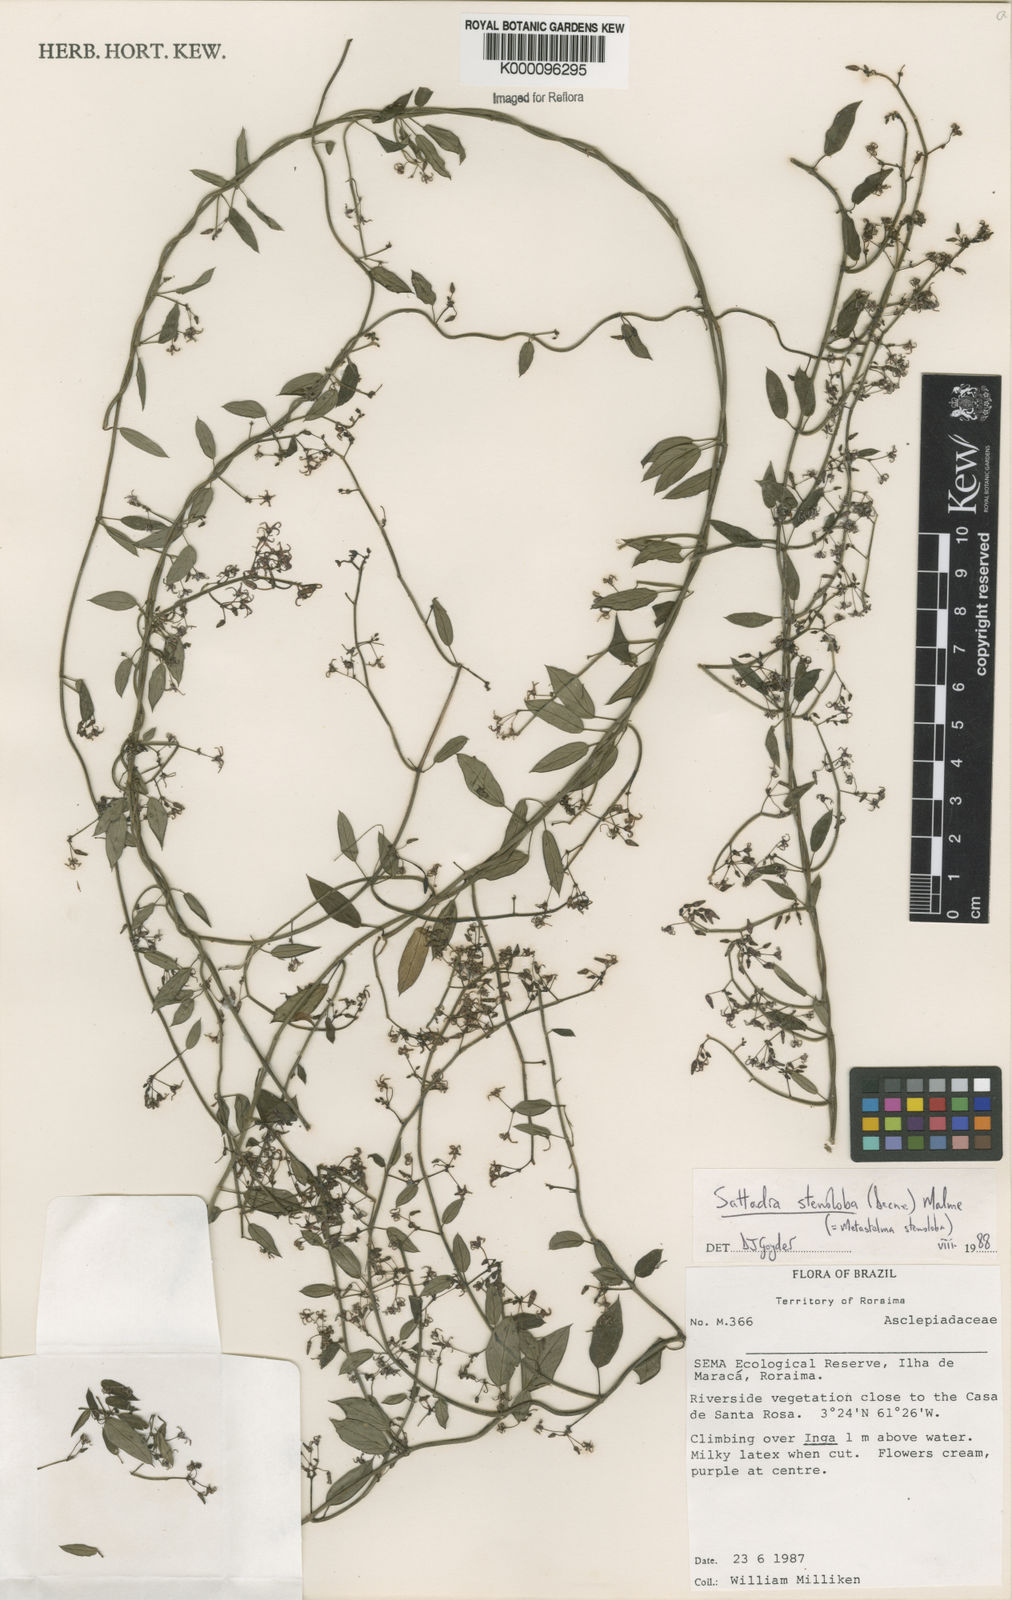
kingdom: Plantae
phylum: Tracheophyta
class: Magnoliopsida
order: Gentianales
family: Apocynaceae
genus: Tassadia
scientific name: Tassadia
